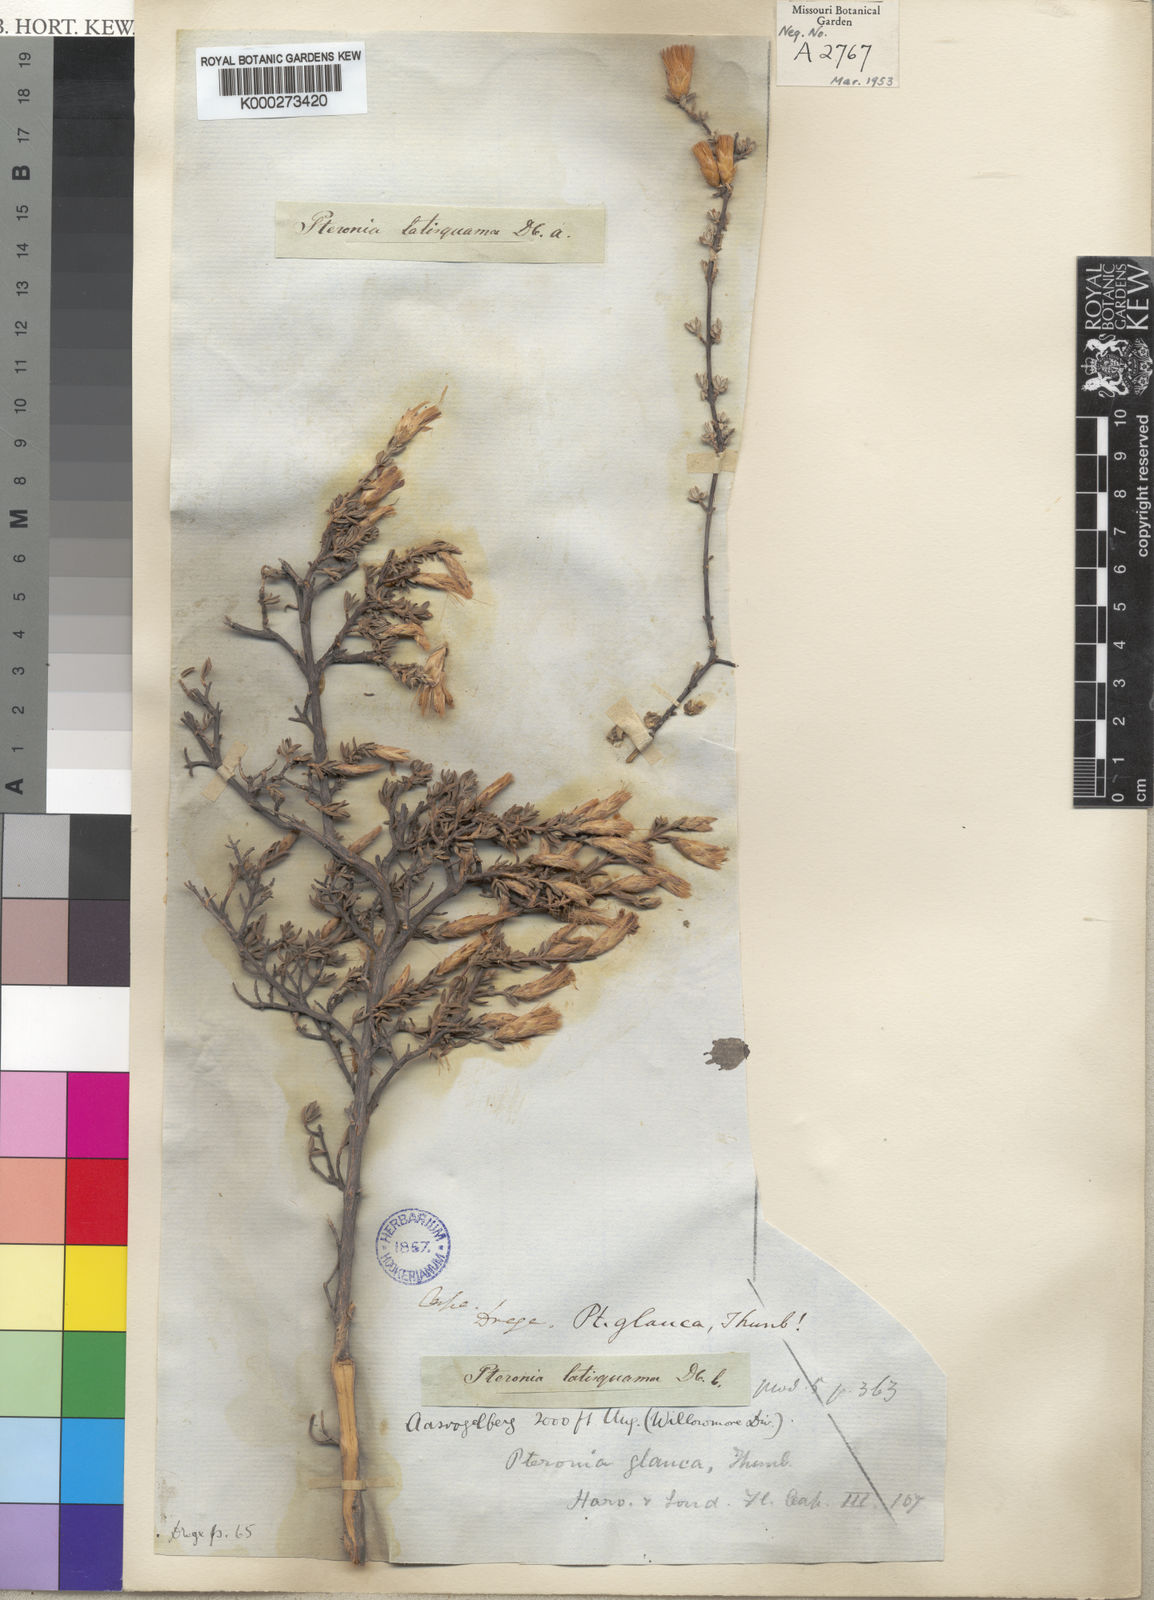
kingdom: Plantae
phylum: Tracheophyta
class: Magnoliopsida
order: Asterales
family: Asteraceae
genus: Pteronia
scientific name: Pteronia glauca
